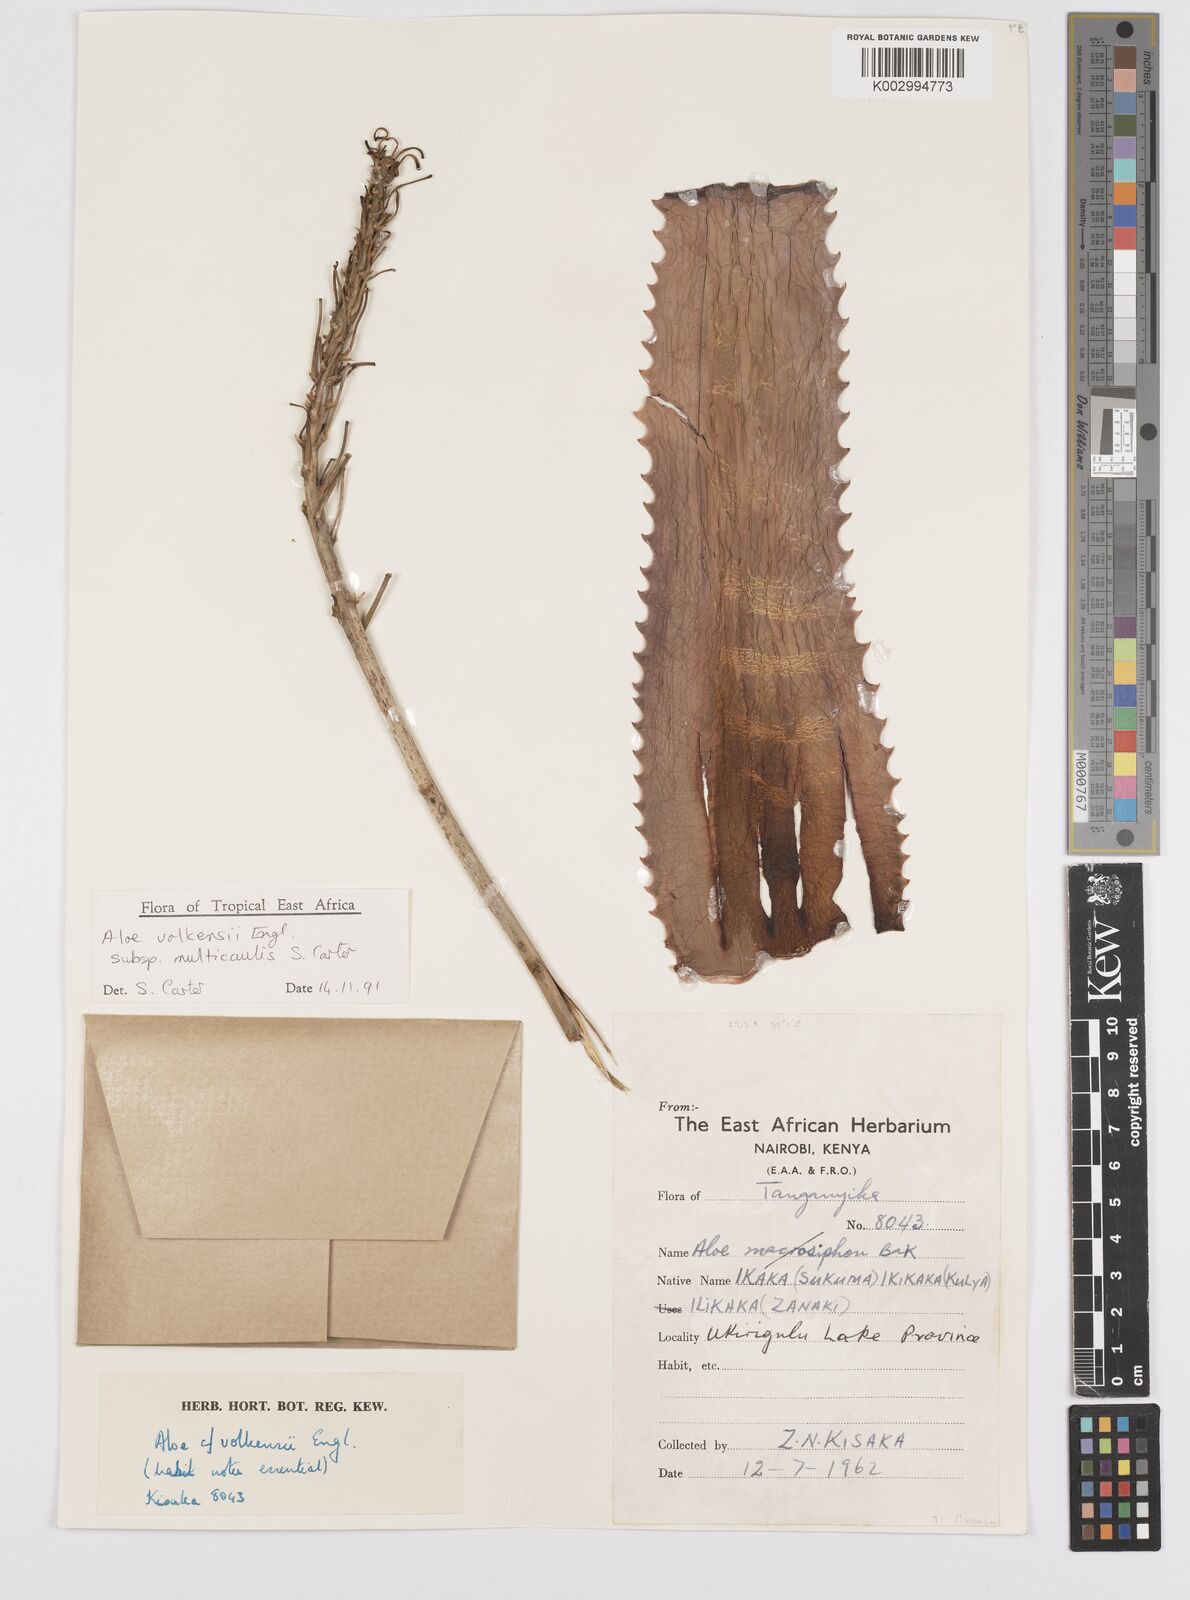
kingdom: Plantae
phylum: Tracheophyta
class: Liliopsida
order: Asparagales
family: Asphodelaceae
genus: Aloe
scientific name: Aloe volkensii
